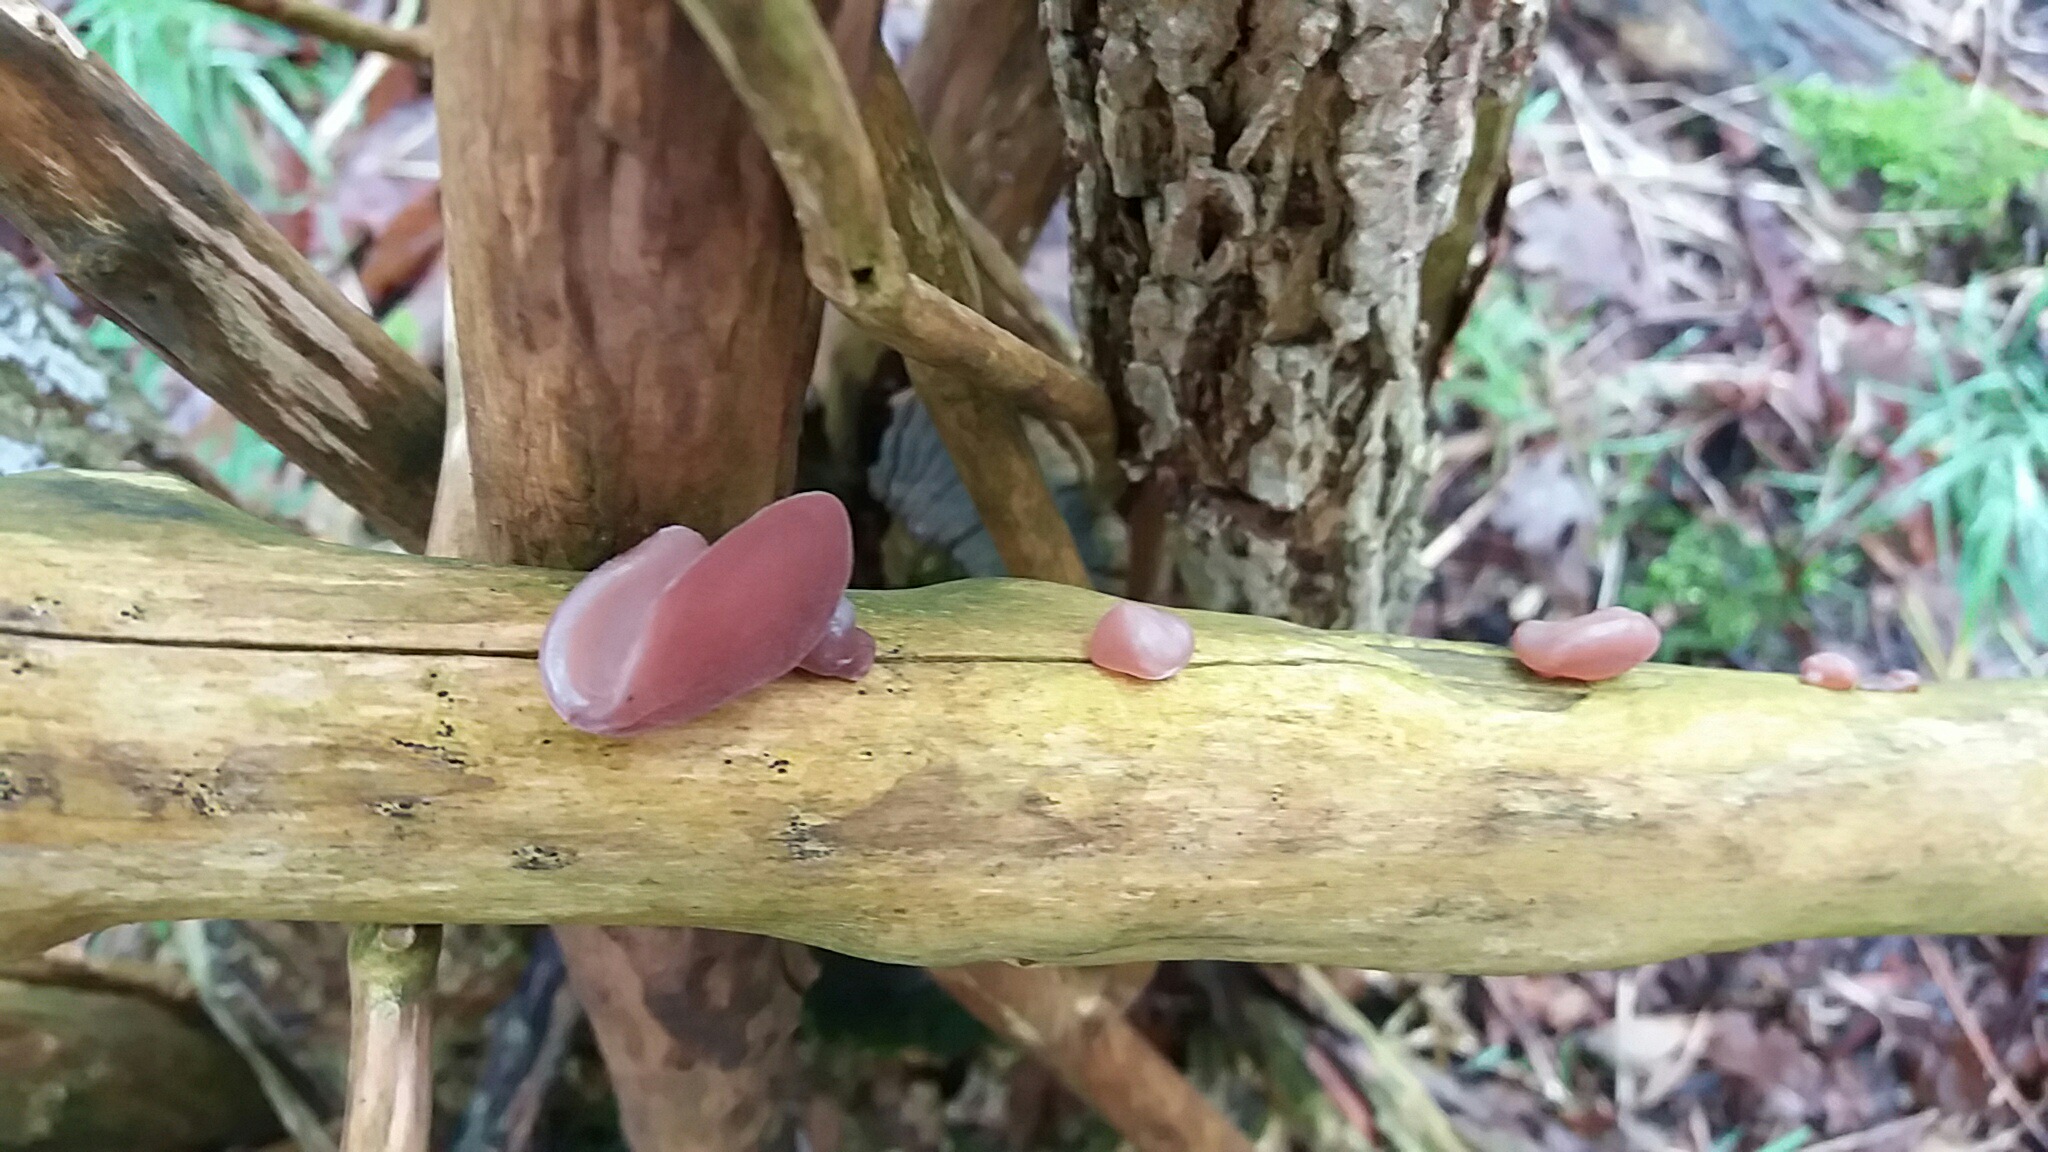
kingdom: Fungi
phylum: Basidiomycota
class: Agaricomycetes
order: Auriculariales
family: Auriculariaceae
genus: Auricularia
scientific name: Auricularia auricula-judae
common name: almindelig judasøre
